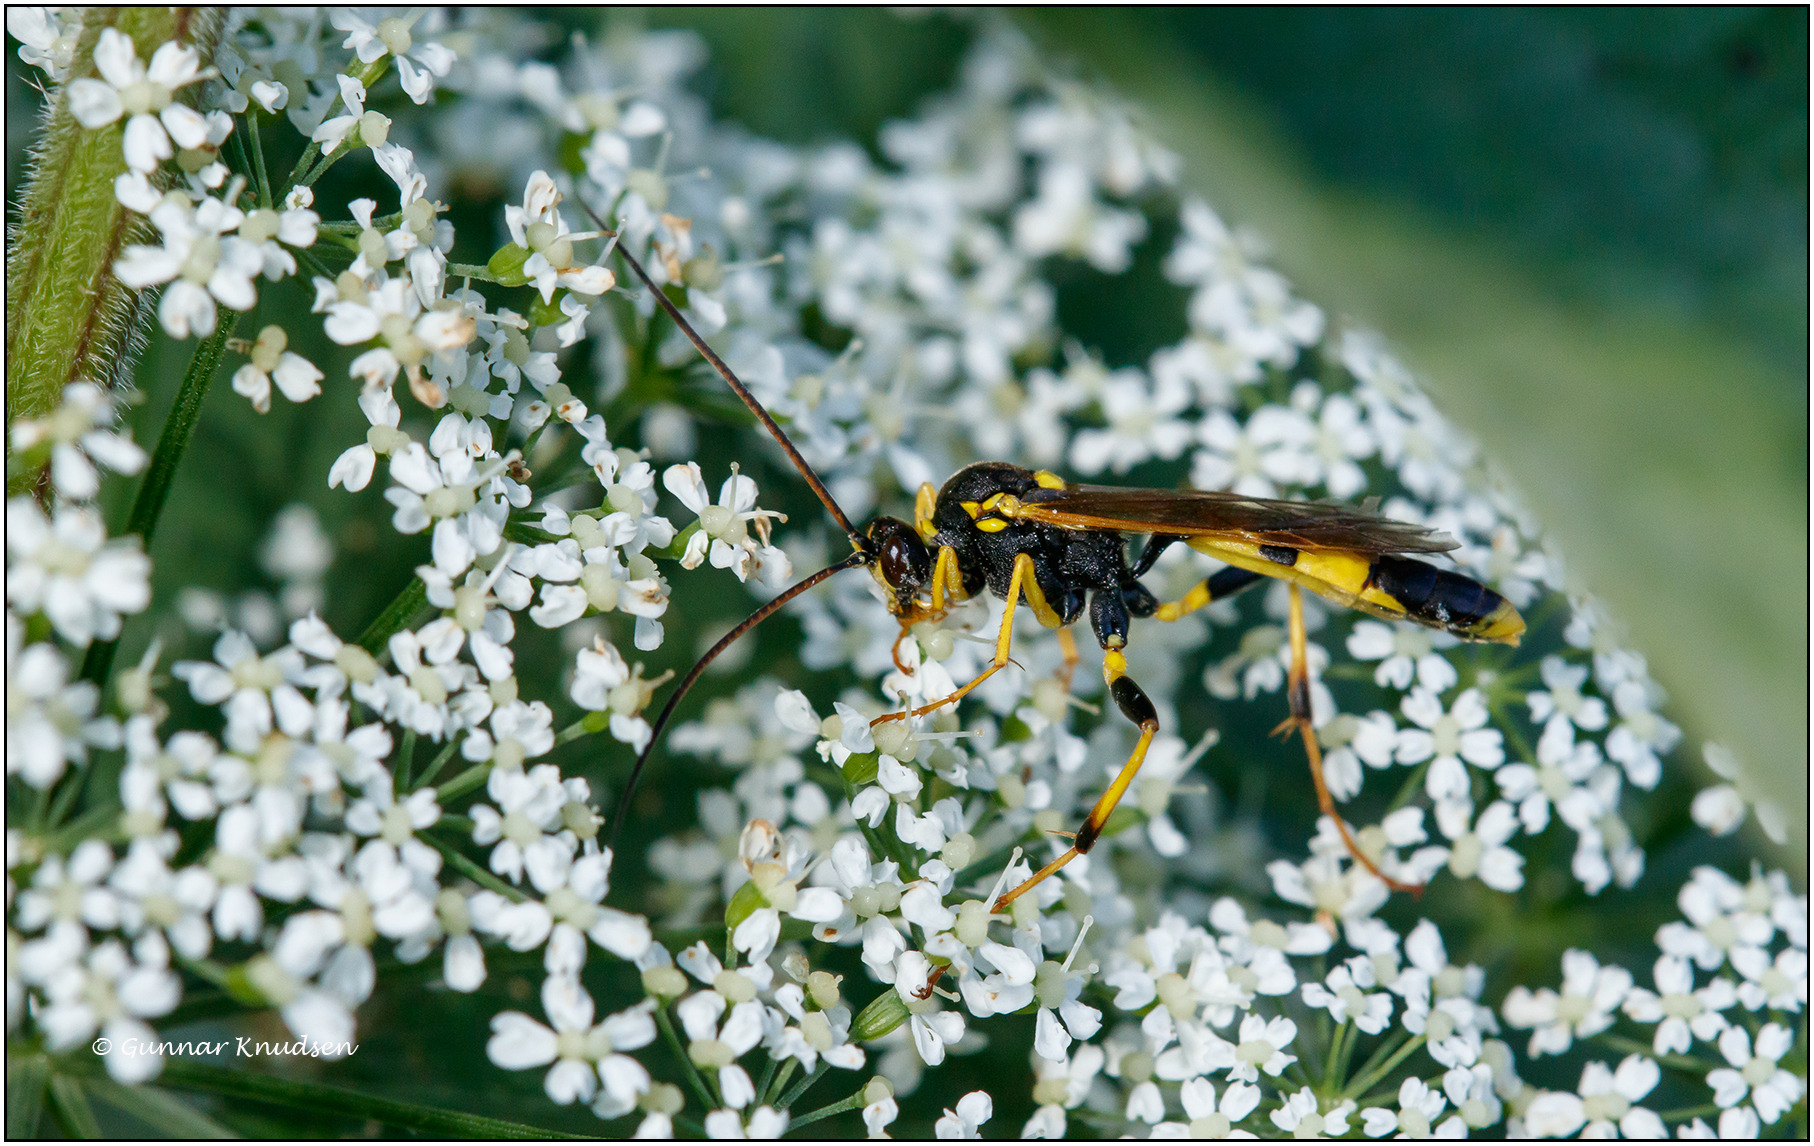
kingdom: Animalia
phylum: Arthropoda
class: Insecta
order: Hymenoptera
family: Ichneumonidae
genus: Amblyteles
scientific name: Amblyteles armatorius
